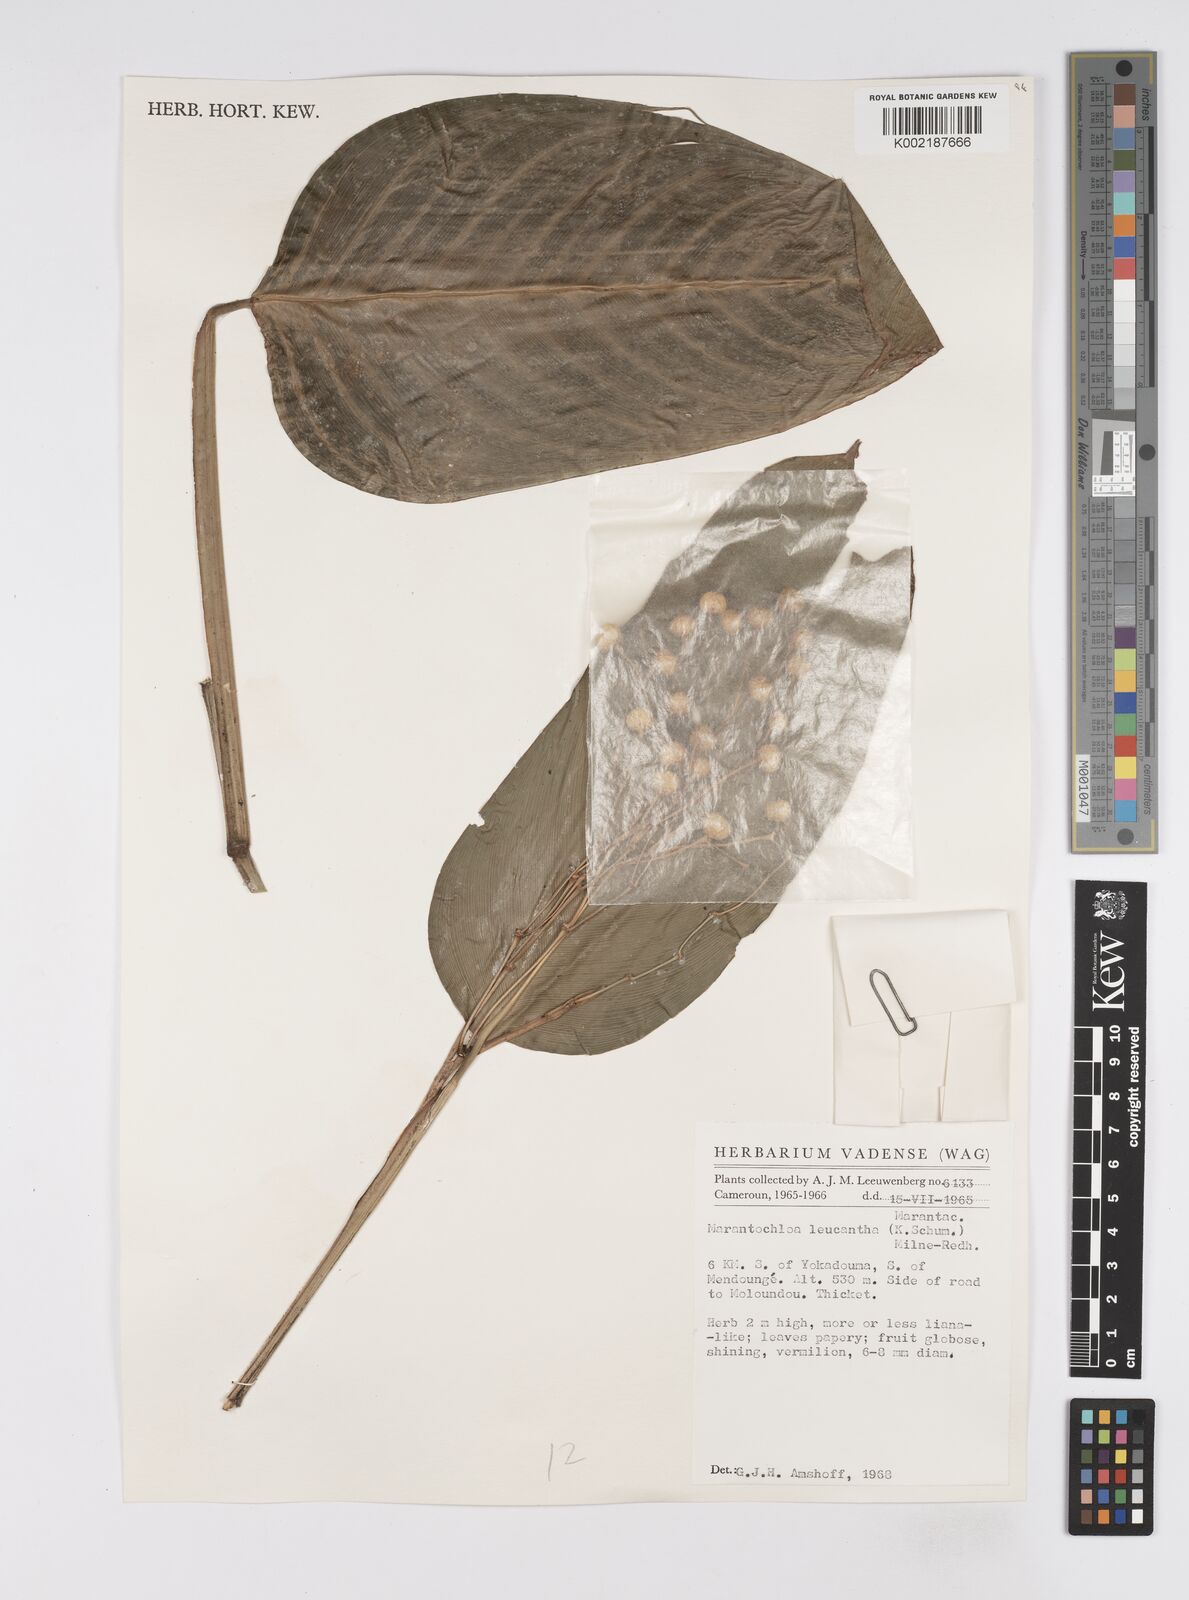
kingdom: Plantae
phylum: Tracheophyta
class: Liliopsida
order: Zingiberales
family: Marantaceae
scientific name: Marantaceae
